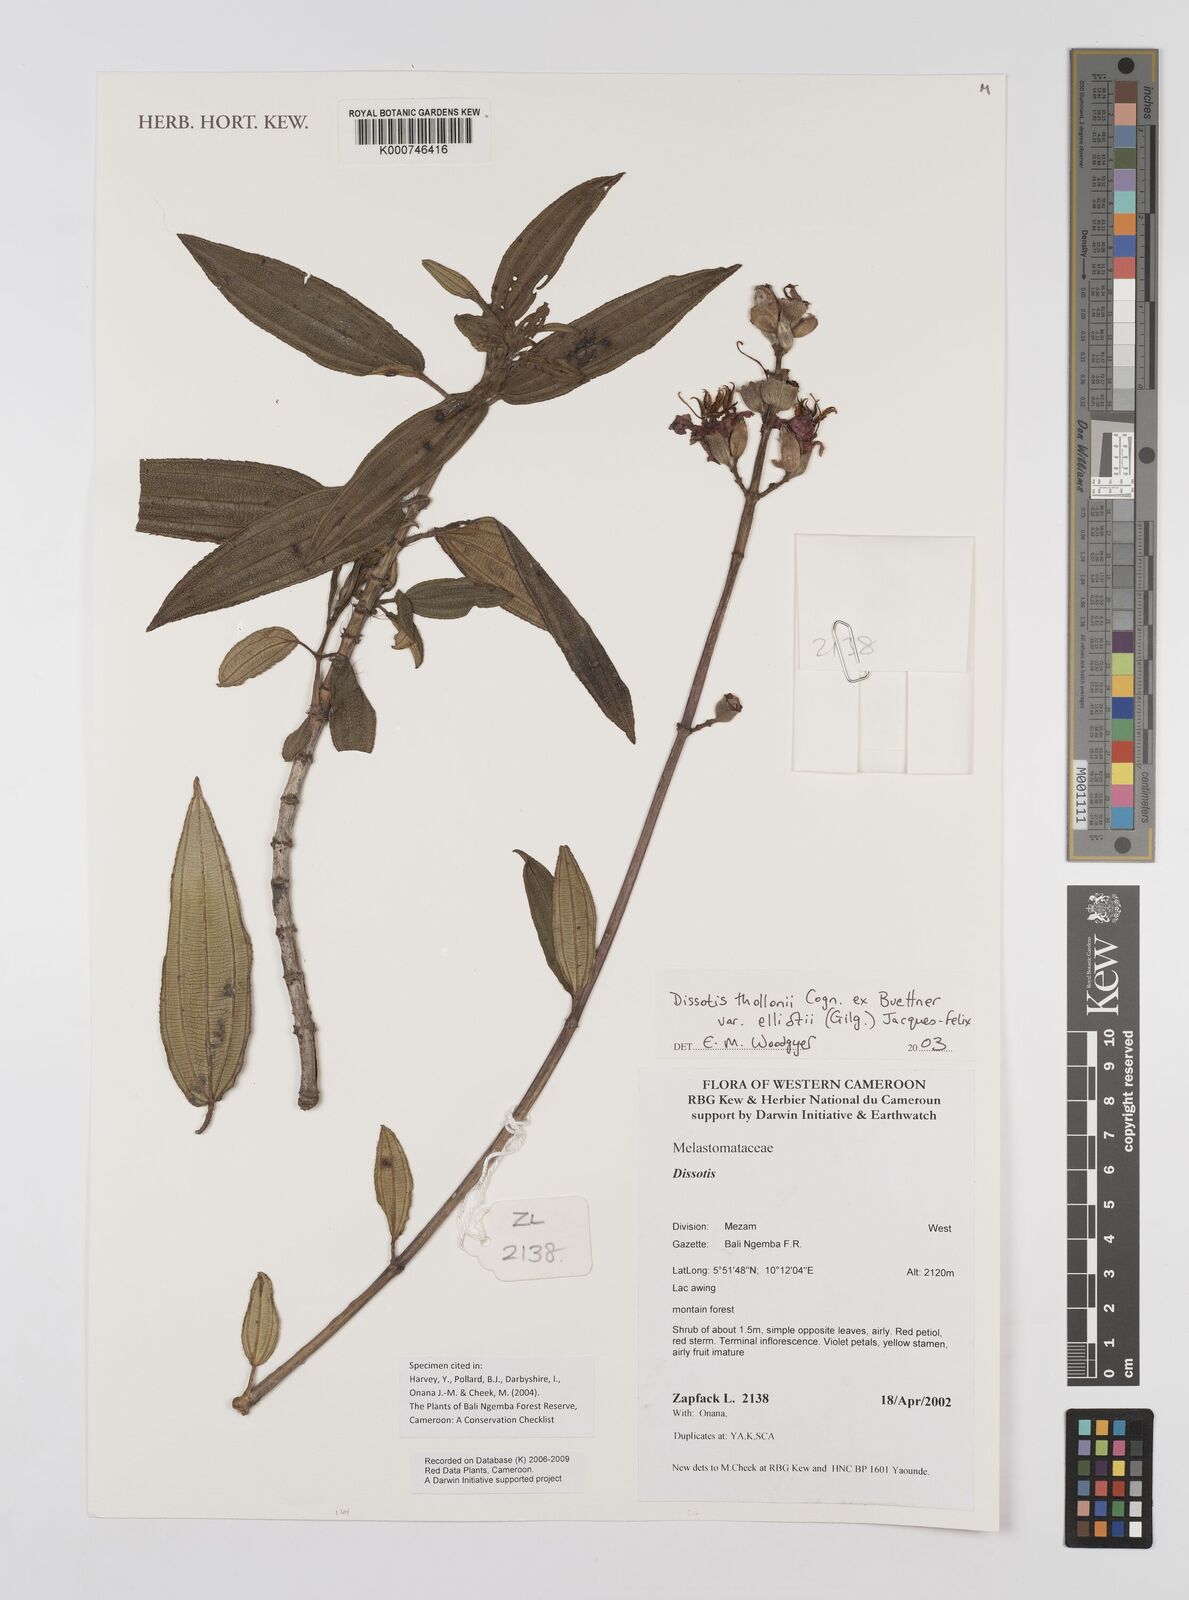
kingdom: Plantae
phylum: Tracheophyta
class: Magnoliopsida
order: Myrtales
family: Melastomataceae
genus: Dissotis
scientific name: Dissotis
